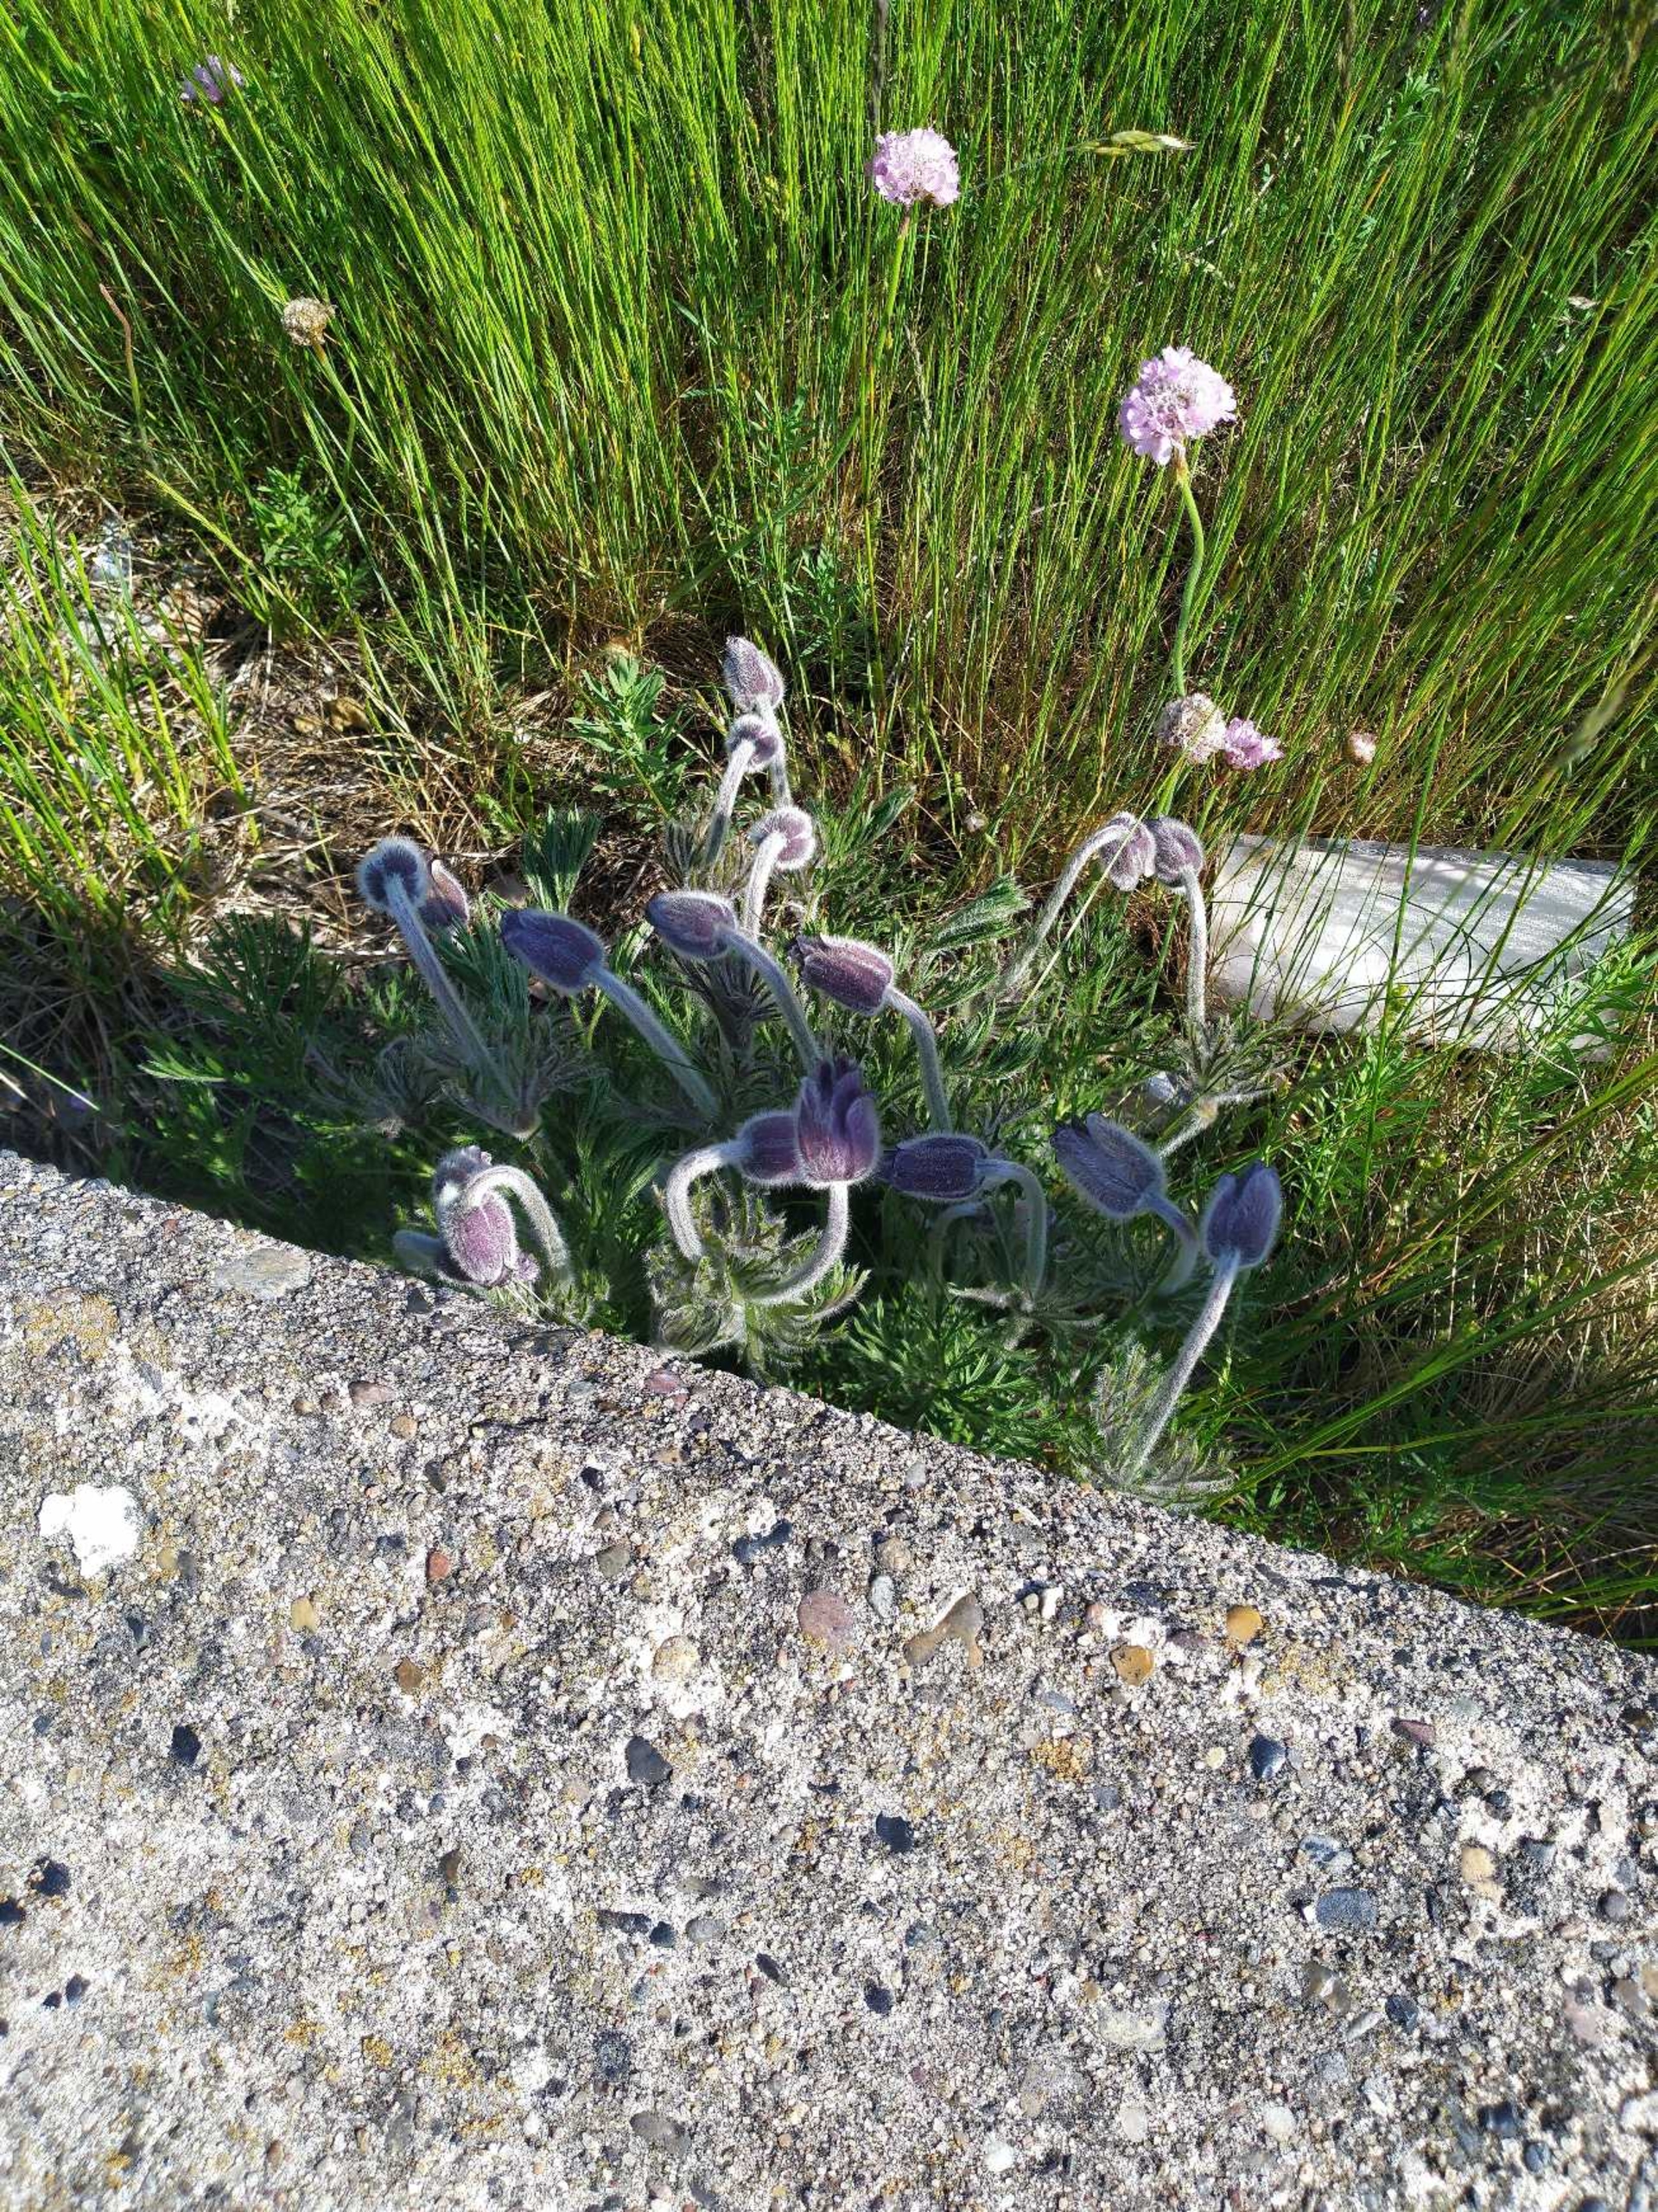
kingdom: Plantae
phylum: Tracheophyta
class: Magnoliopsida
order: Ranunculales
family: Ranunculaceae
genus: Pulsatilla
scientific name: Pulsatilla pratensis
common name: Nikkende kobjælde
